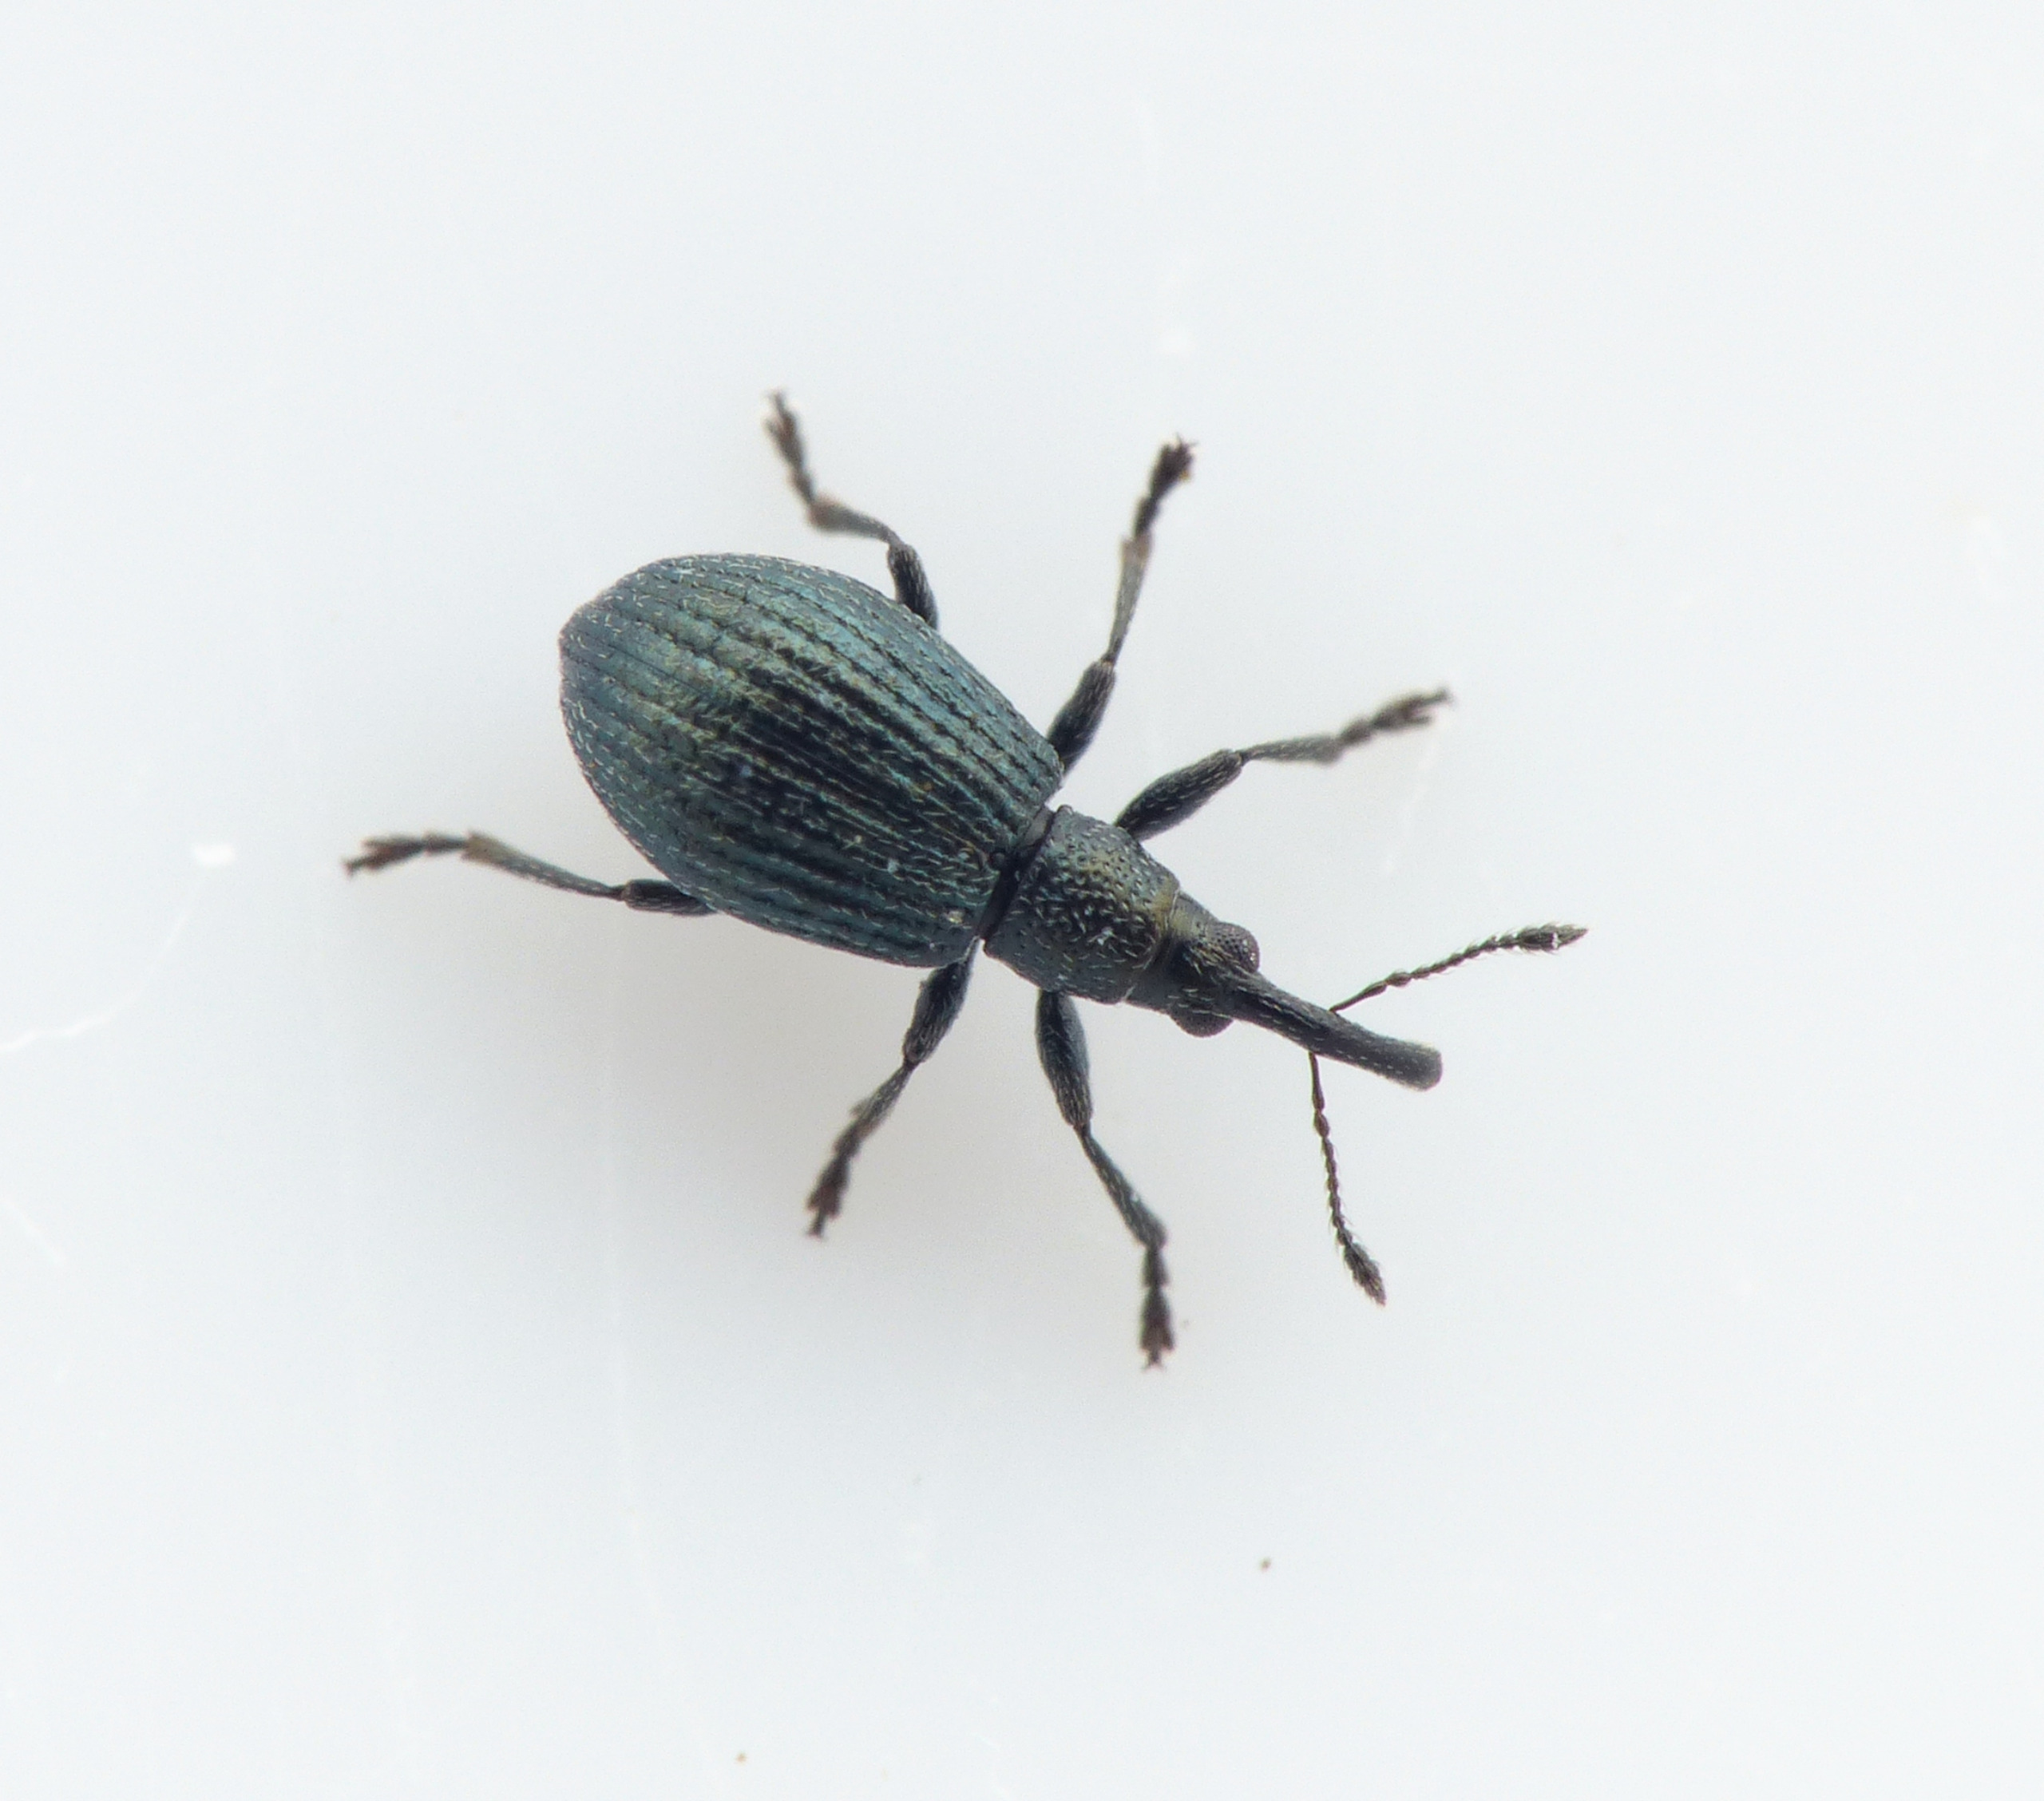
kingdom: Animalia
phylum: Arthropoda
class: Insecta
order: Coleoptera
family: Apionidae
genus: Ischnopterapion
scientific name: Ischnopterapion virens
